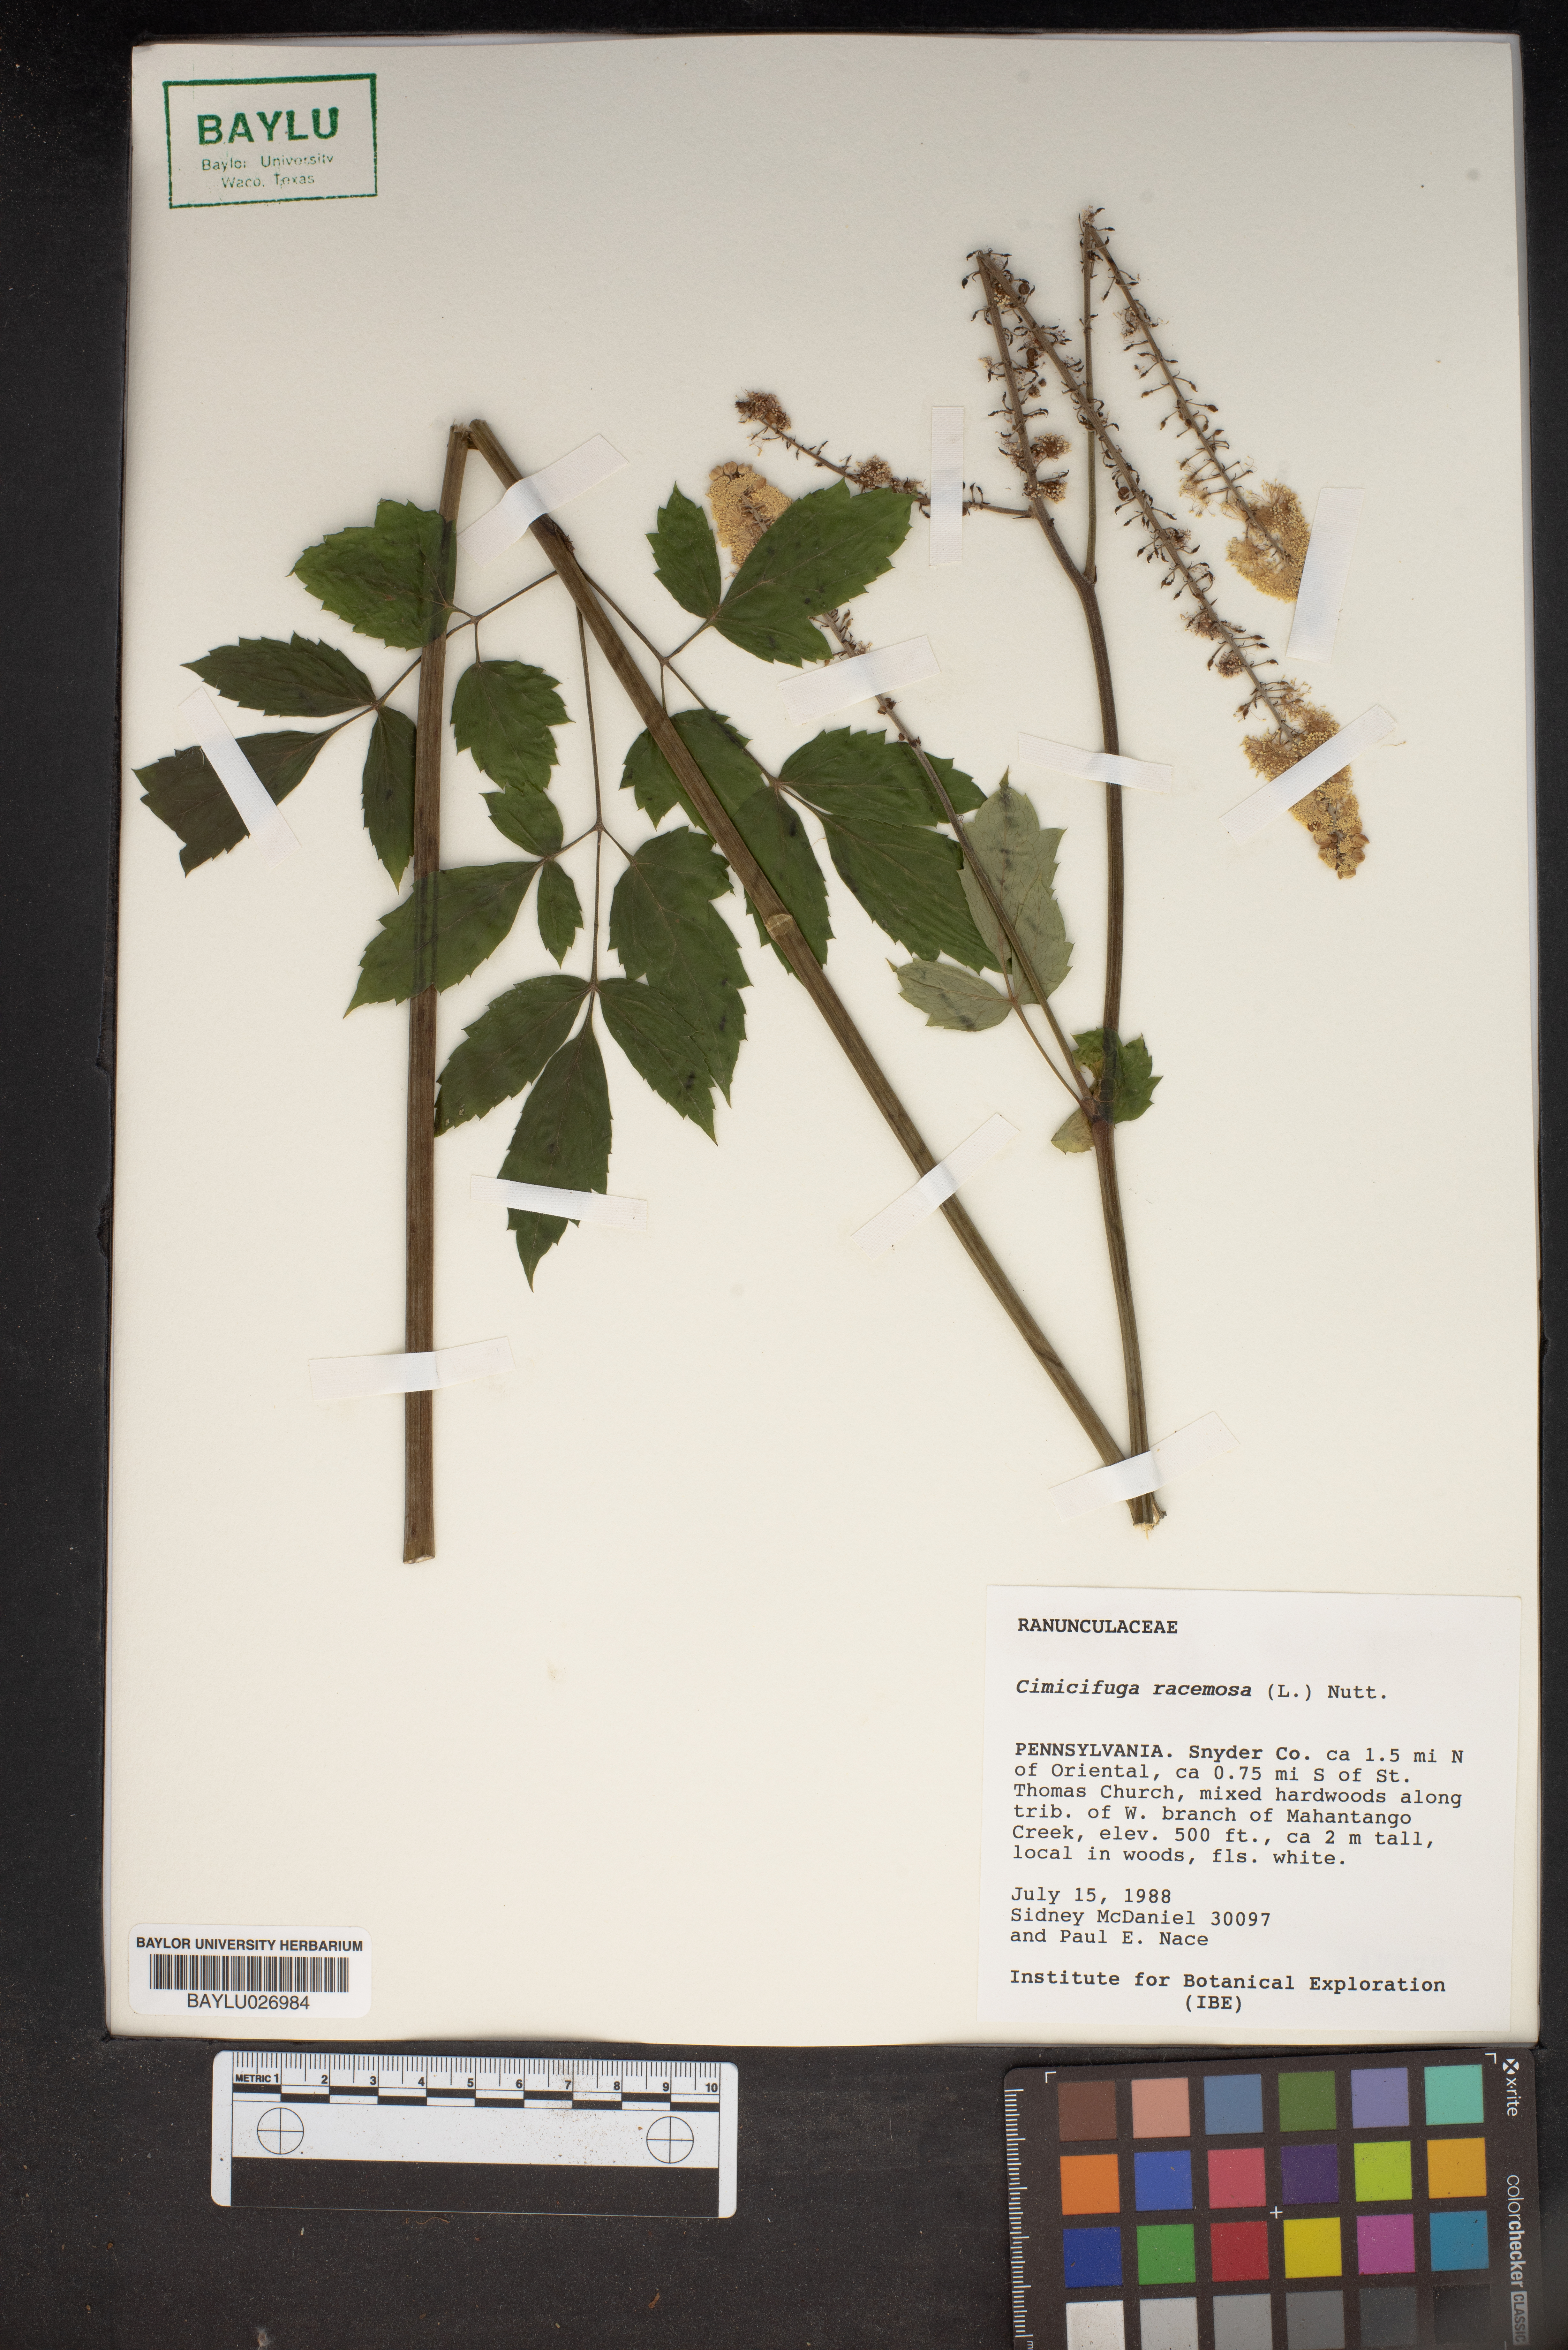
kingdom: Plantae
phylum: Tracheophyta
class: Magnoliopsida
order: Ranunculales
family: Ranunculaceae
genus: Actaea
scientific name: Actaea racemosa
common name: Black cohosh
